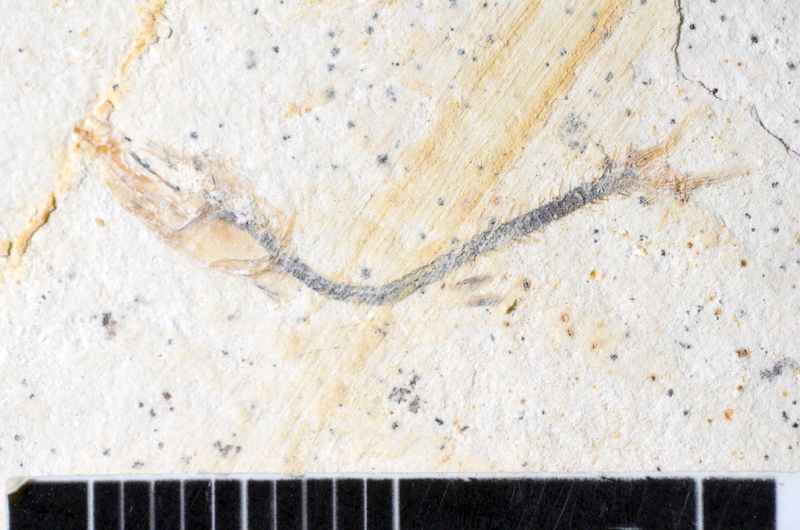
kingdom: Animalia
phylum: Chordata
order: Salmoniformes
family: Orthogonikleithridae
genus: Orthogonikleithrus
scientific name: Orthogonikleithrus hoelli
